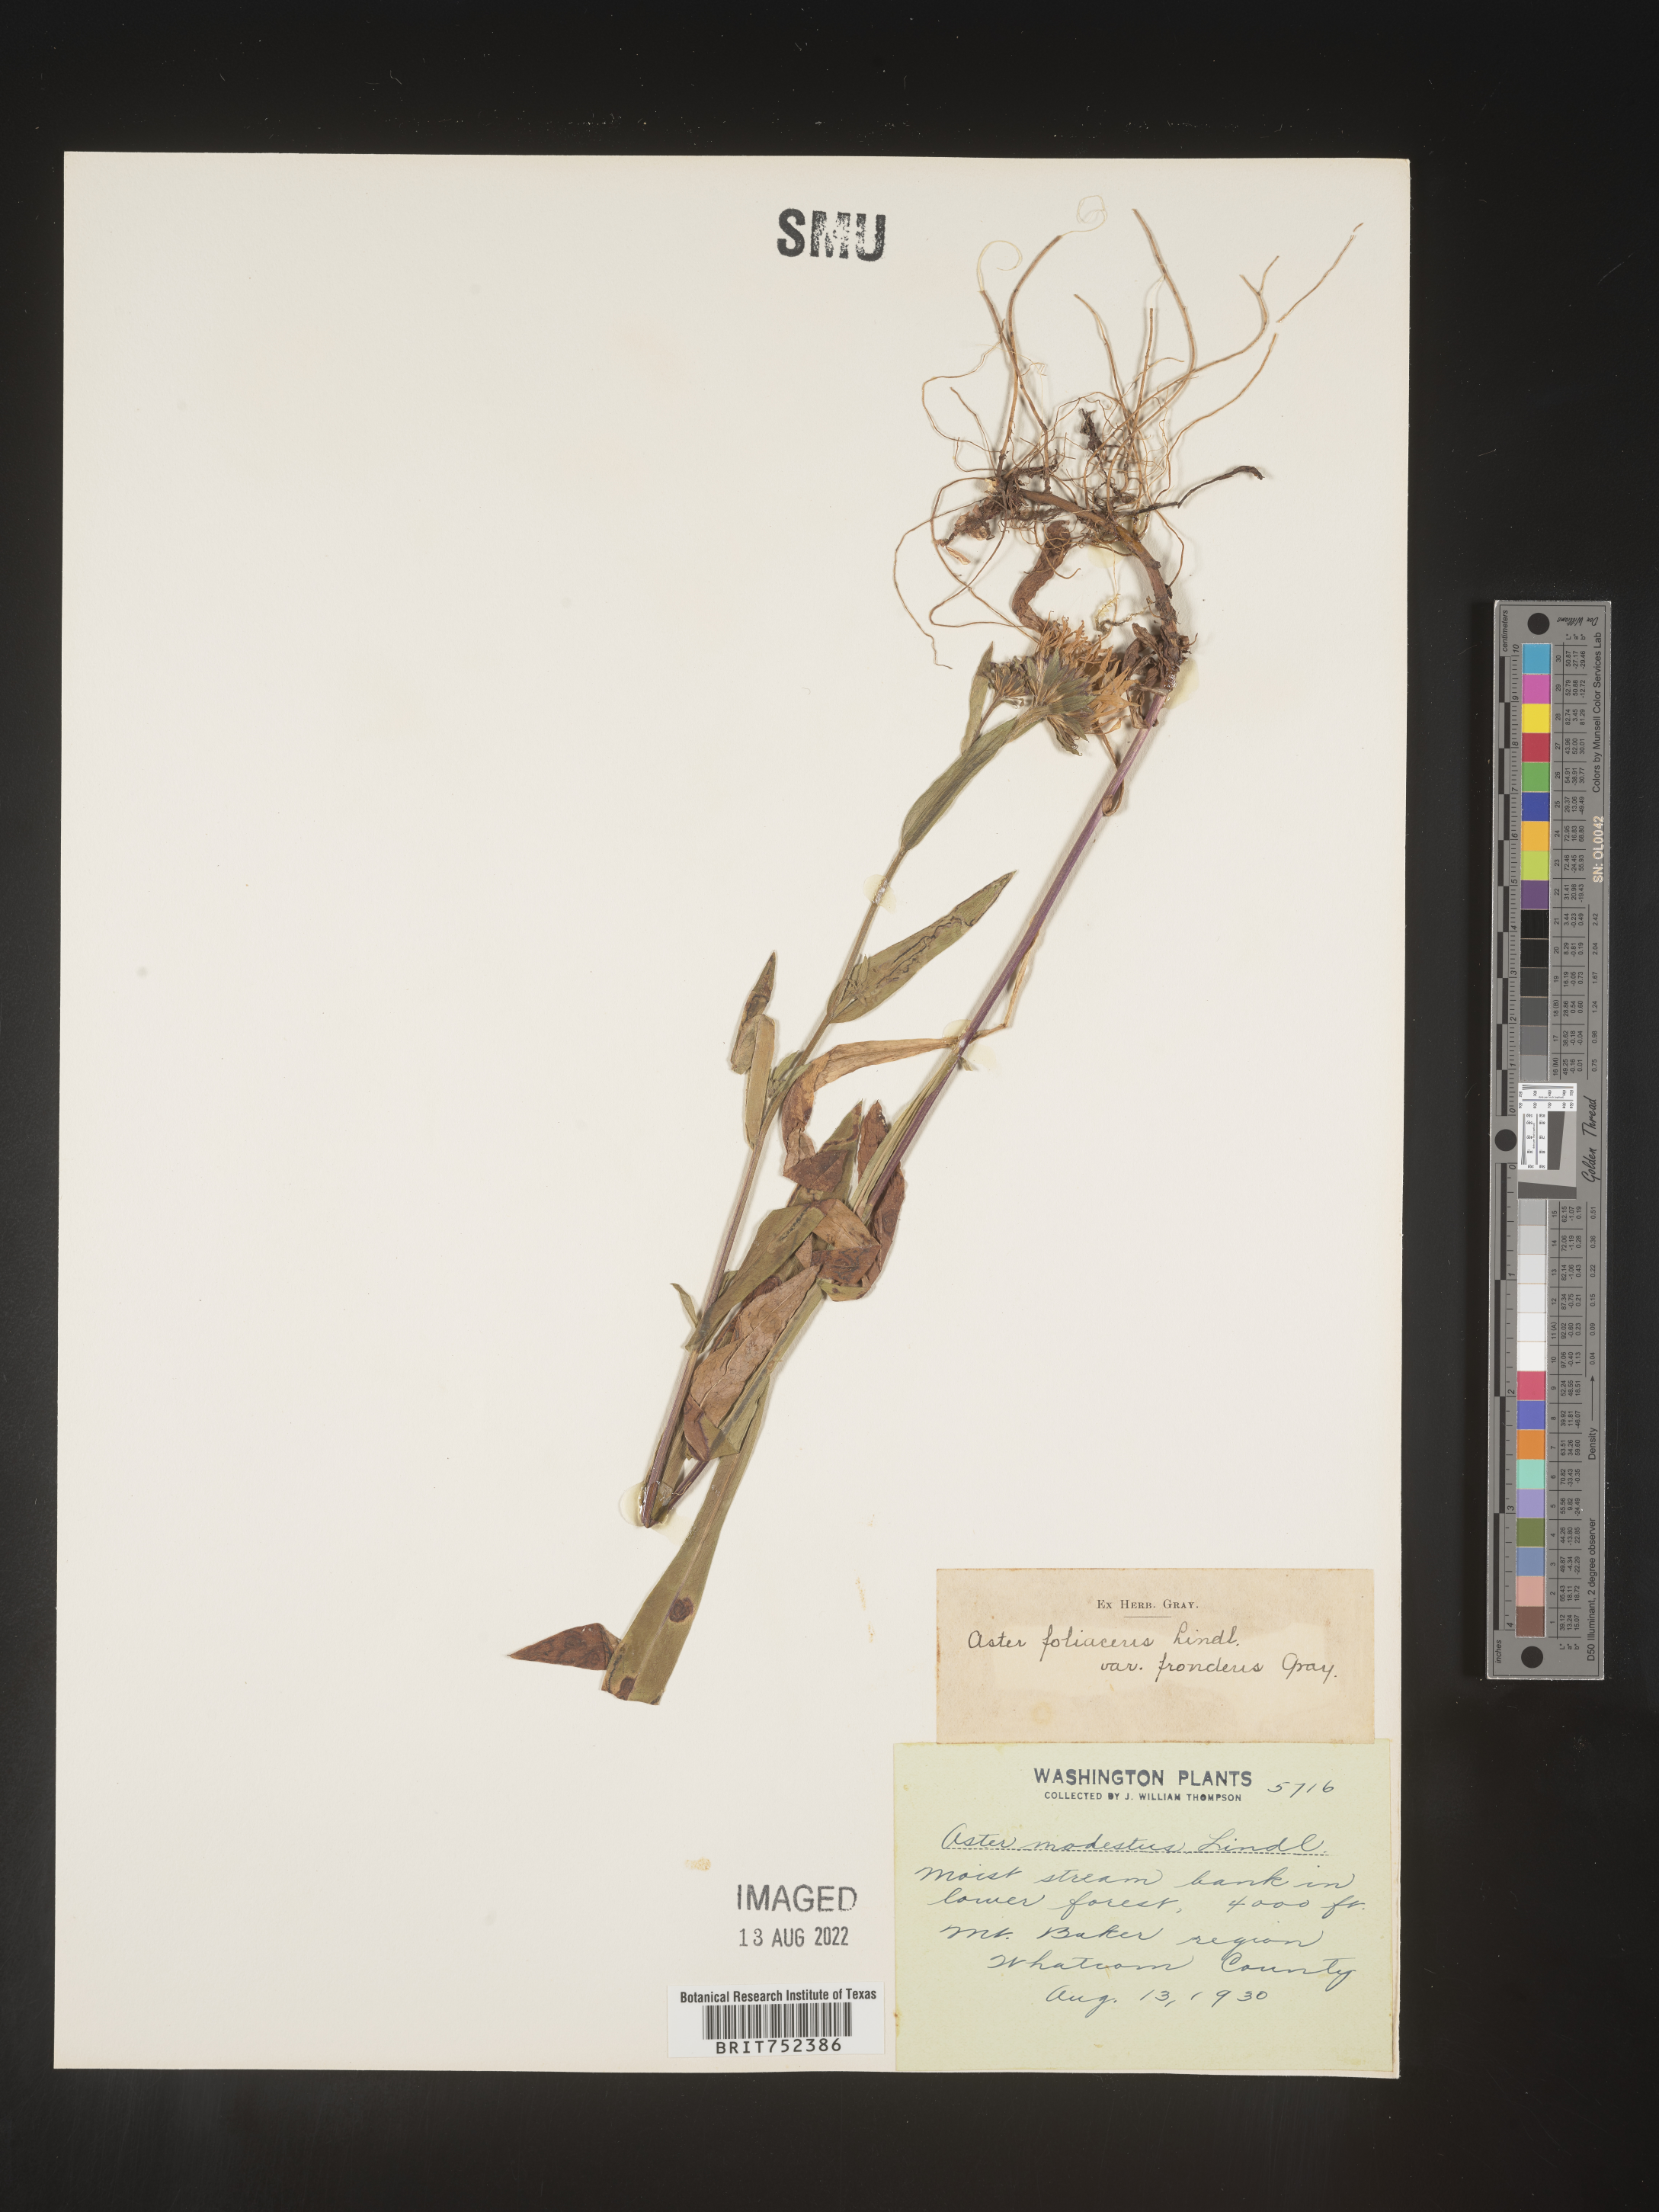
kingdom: Plantae
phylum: Tracheophyta
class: Magnoliopsida
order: Asterales
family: Asteraceae
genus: Symphyotrichum
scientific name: Symphyotrichum foliaceum
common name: Leafy aster
